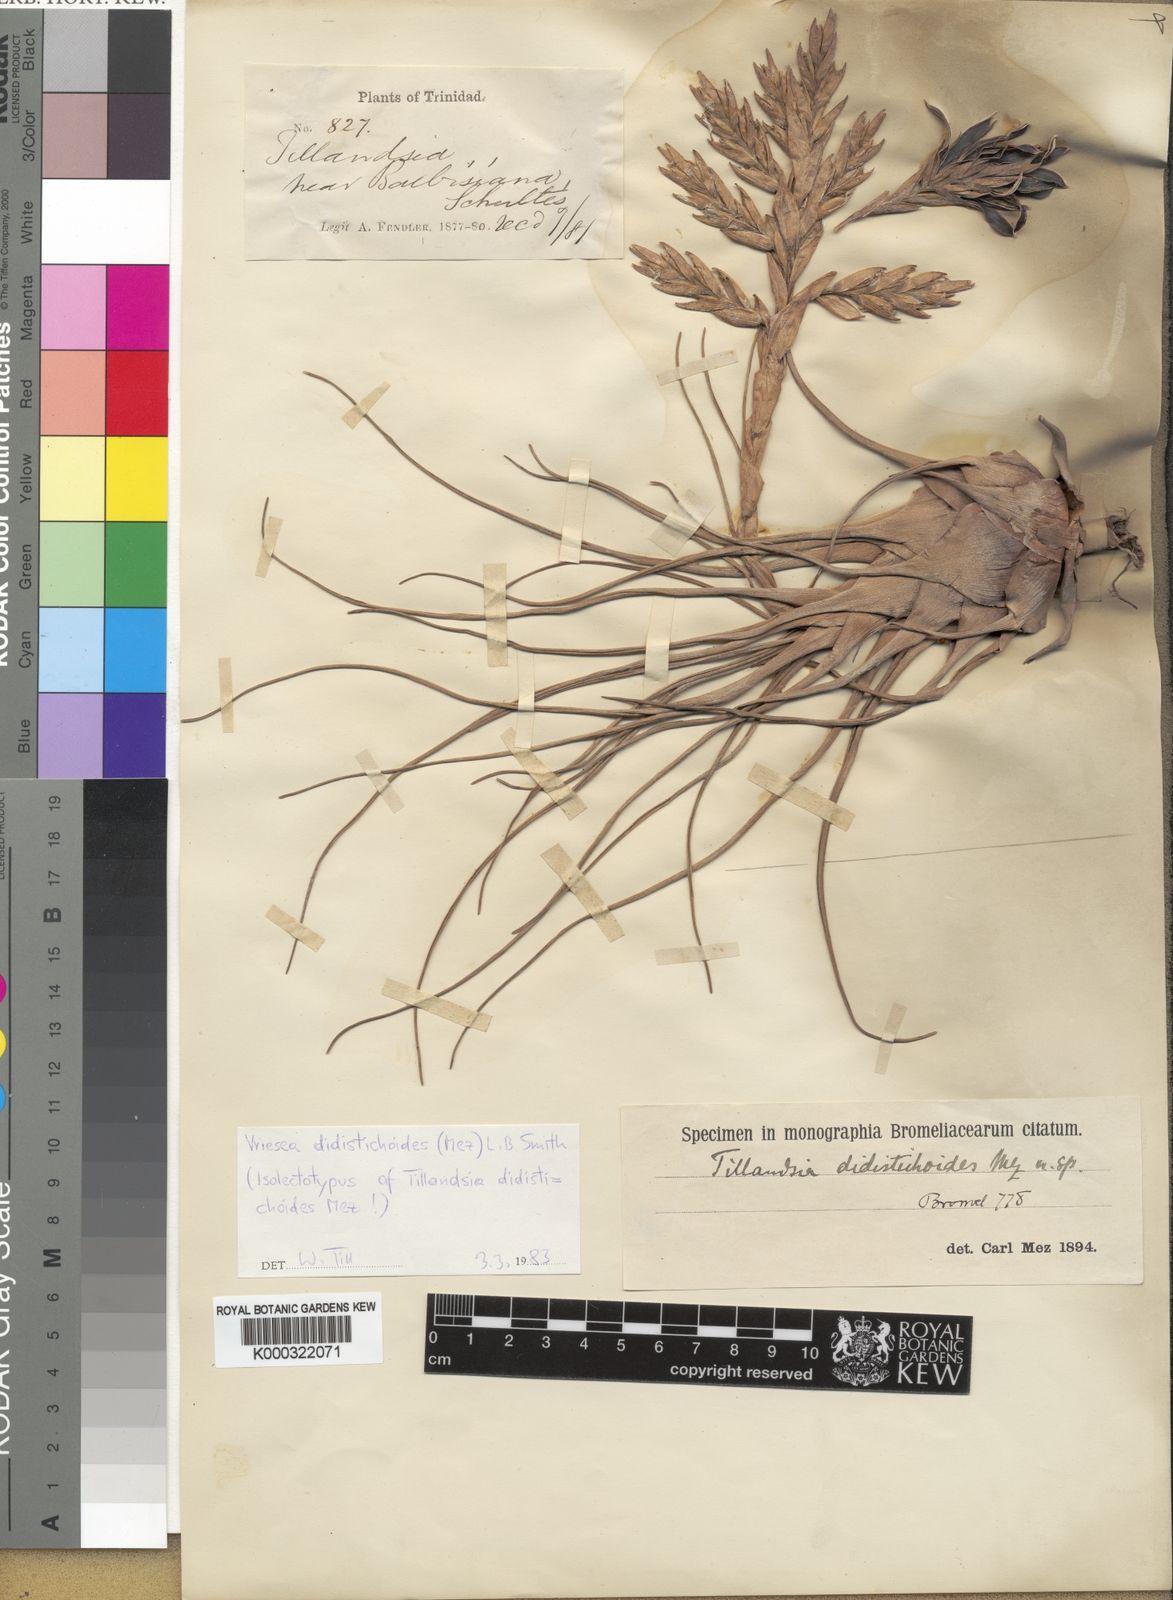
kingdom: Plantae
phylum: Tracheophyta
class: Liliopsida
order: Poales
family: Bromeliaceae
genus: Tillandsia
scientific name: Tillandsia didistichoides
